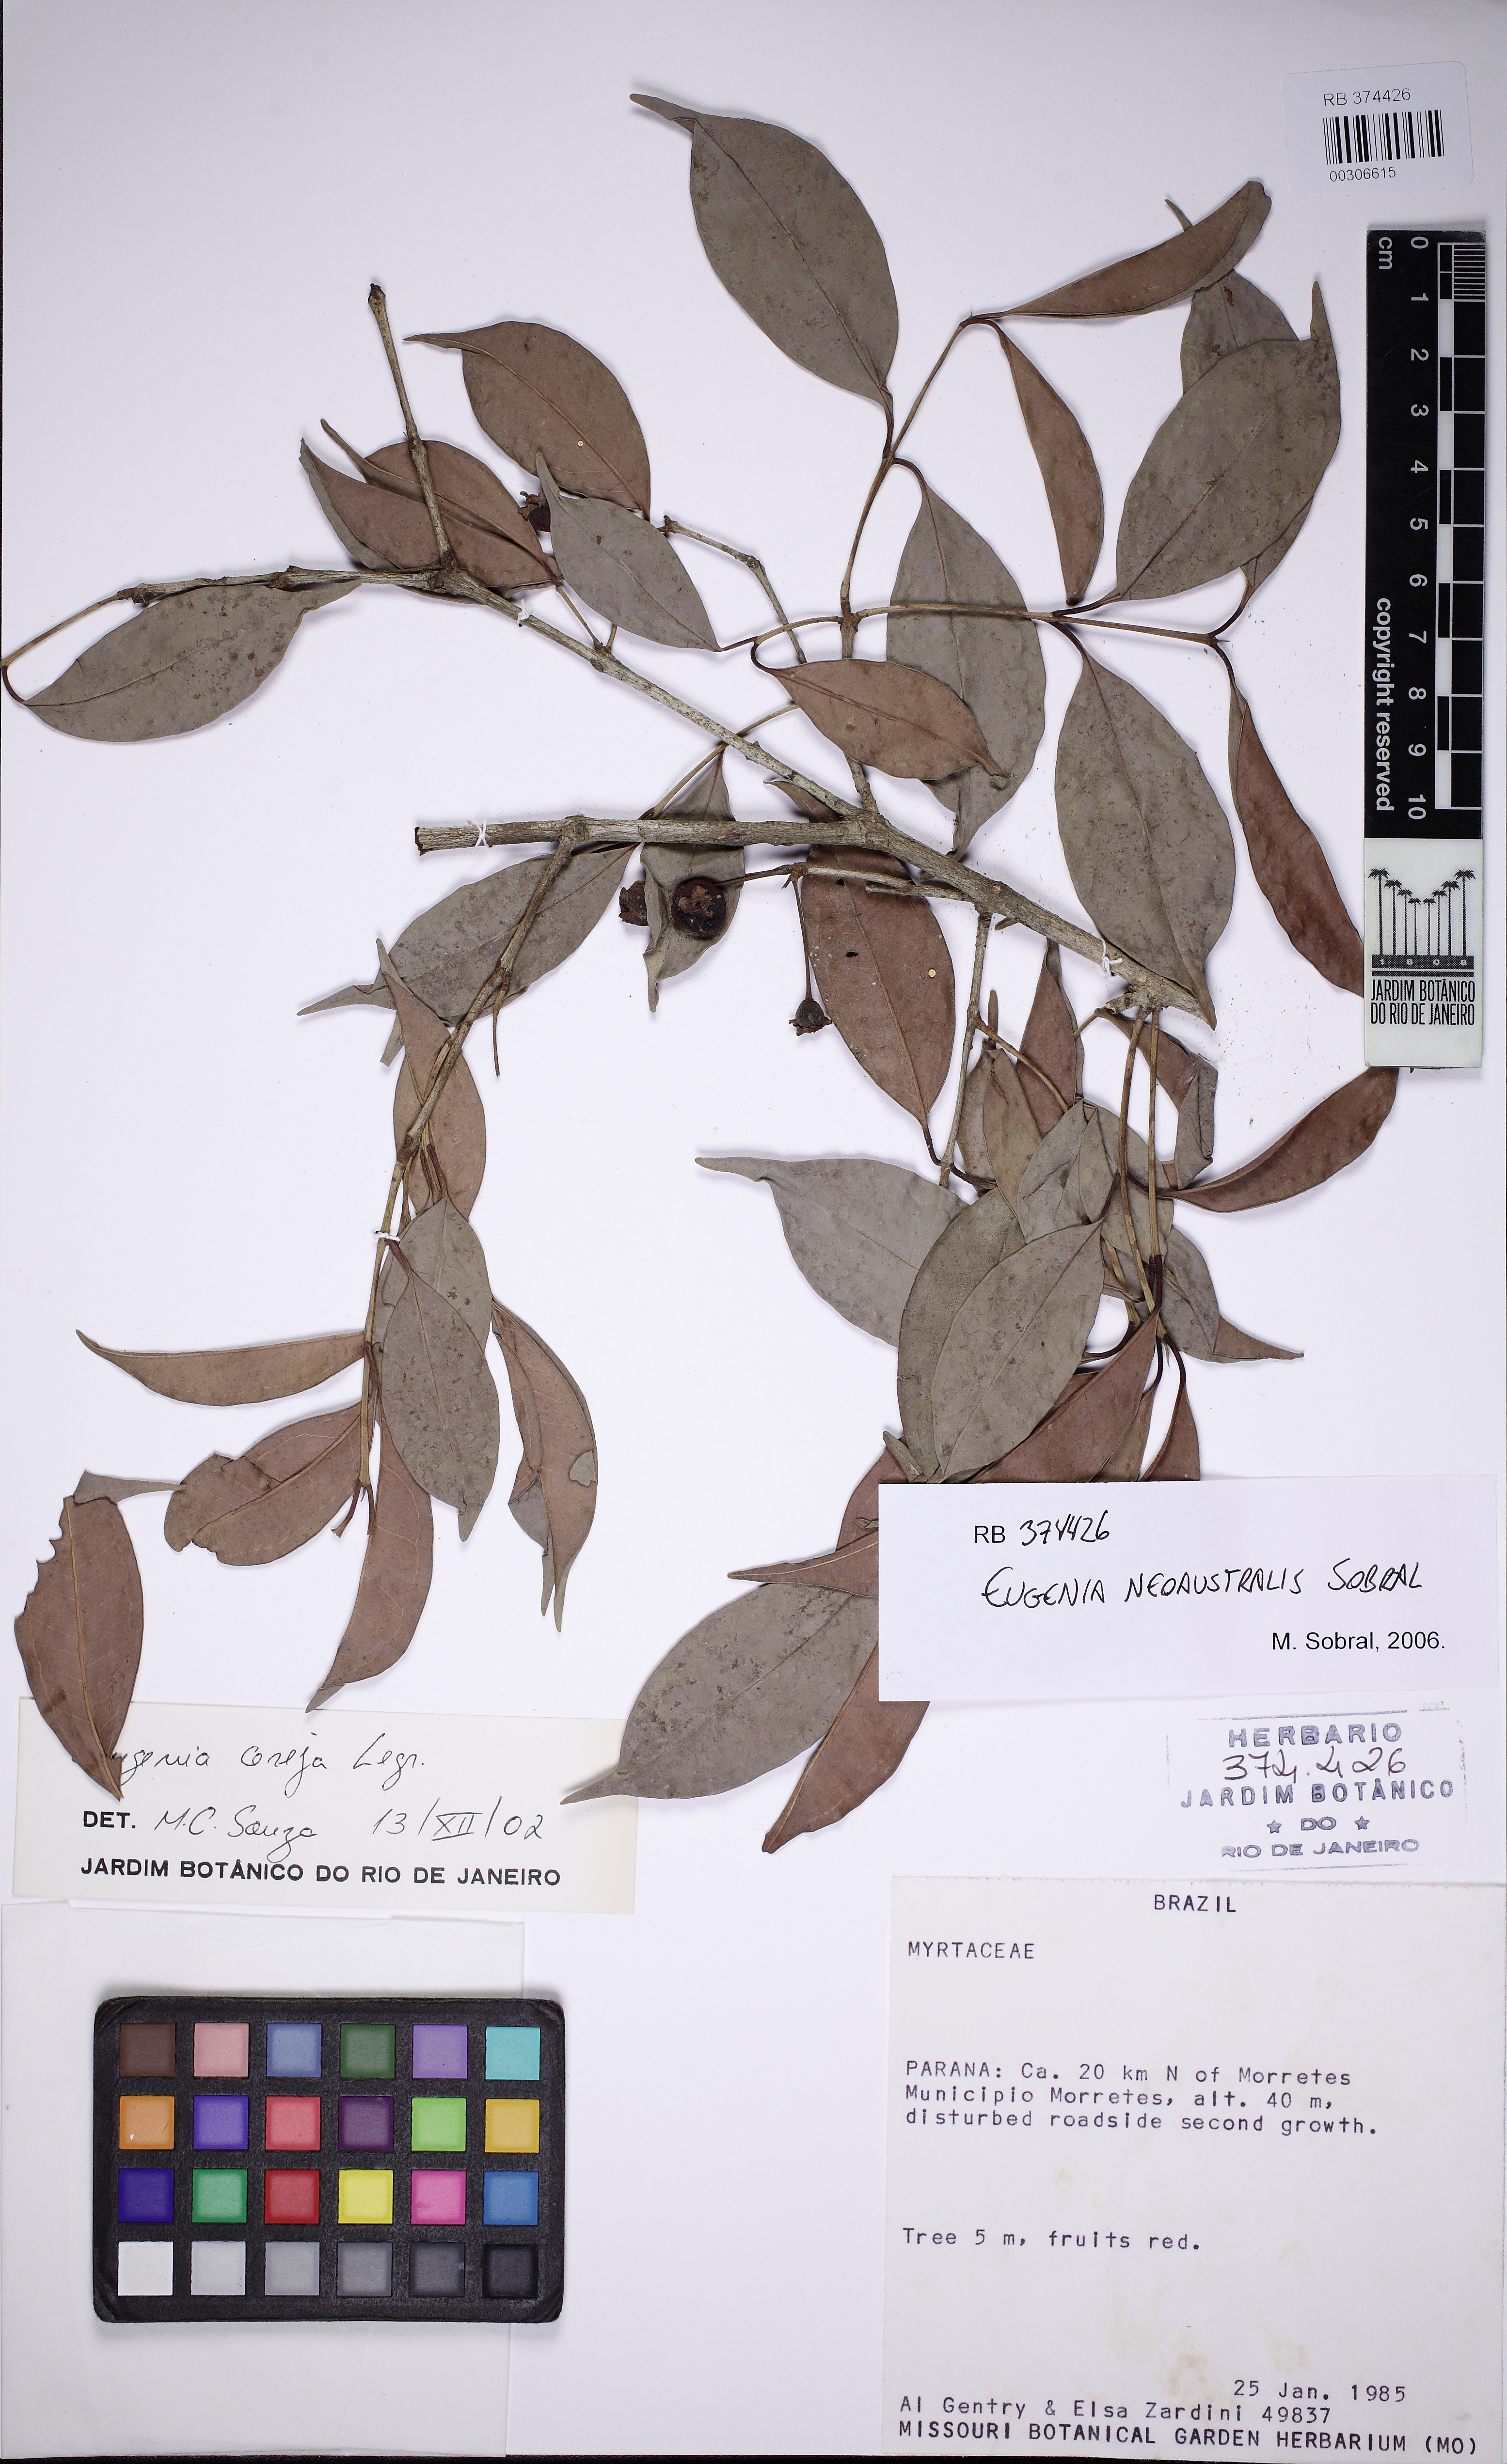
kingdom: Plantae
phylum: Tracheophyta
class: Magnoliopsida
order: Myrtales
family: Myrtaceae
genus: Eugenia
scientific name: Eugenia neoaustralis
